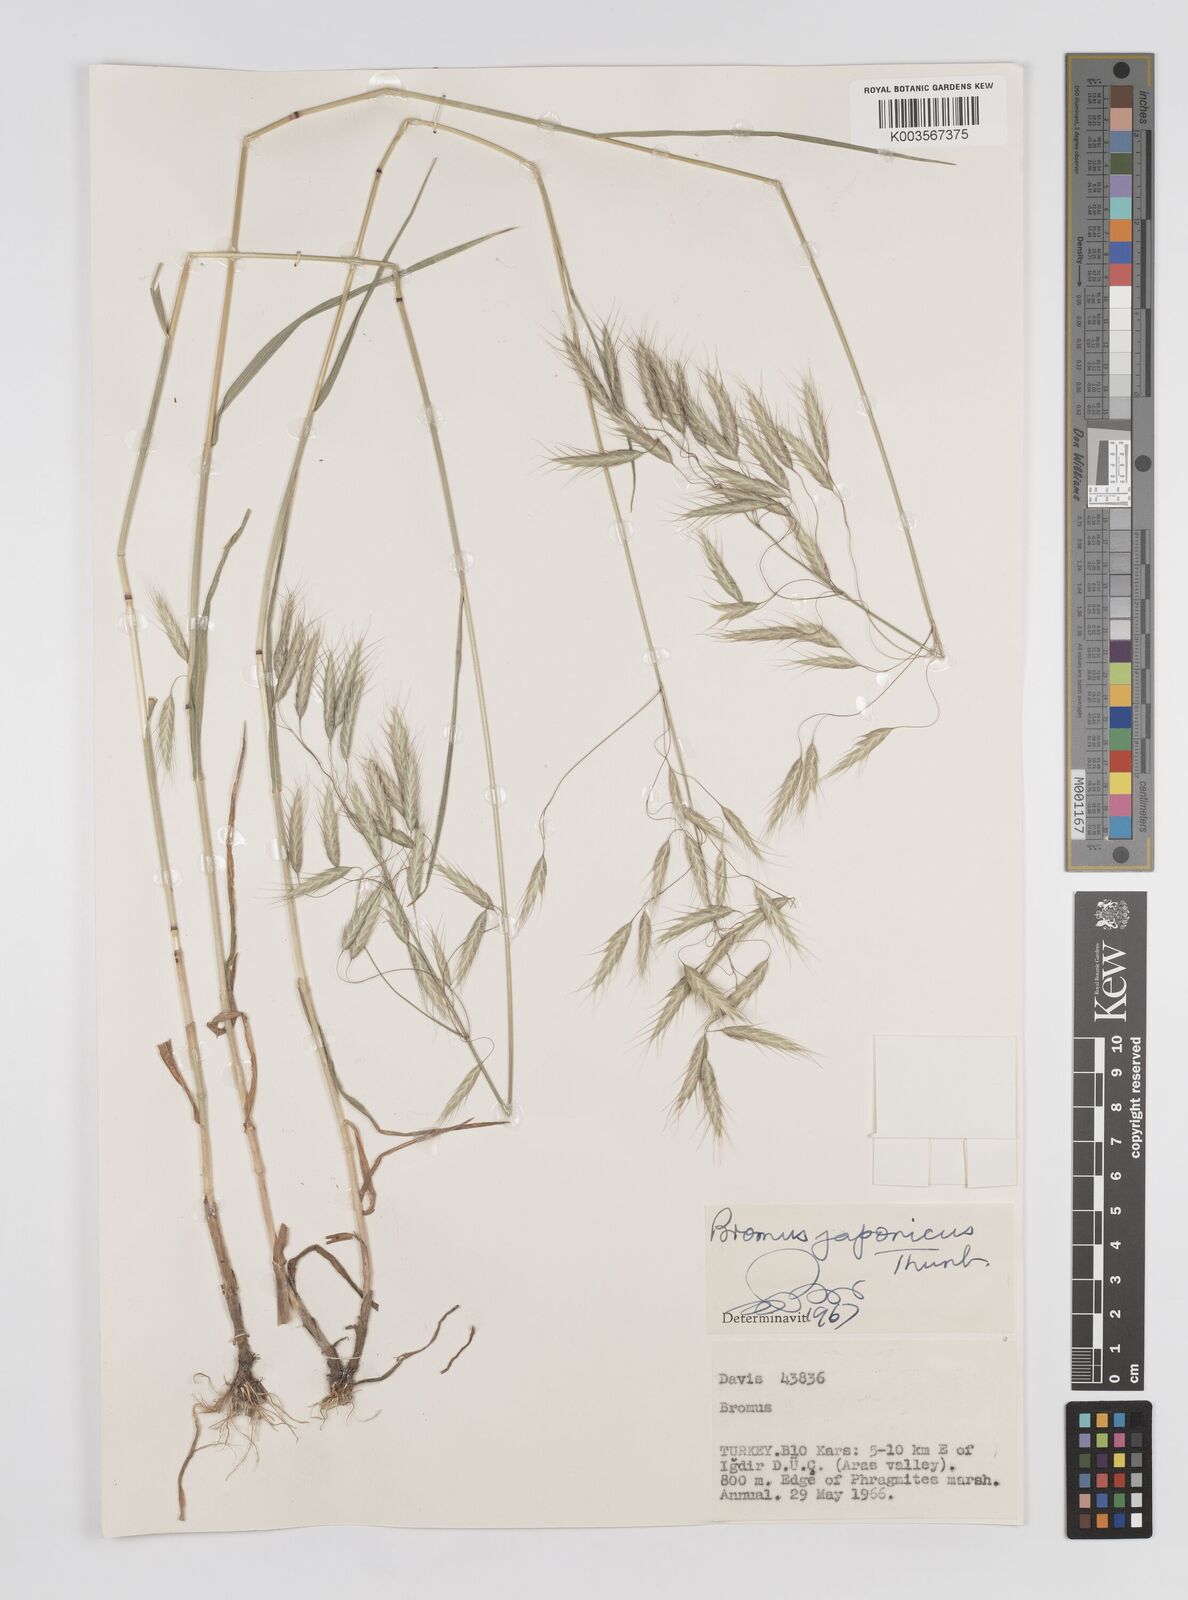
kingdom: Plantae
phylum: Tracheophyta
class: Liliopsida
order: Poales
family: Poaceae
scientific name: Poaceae
